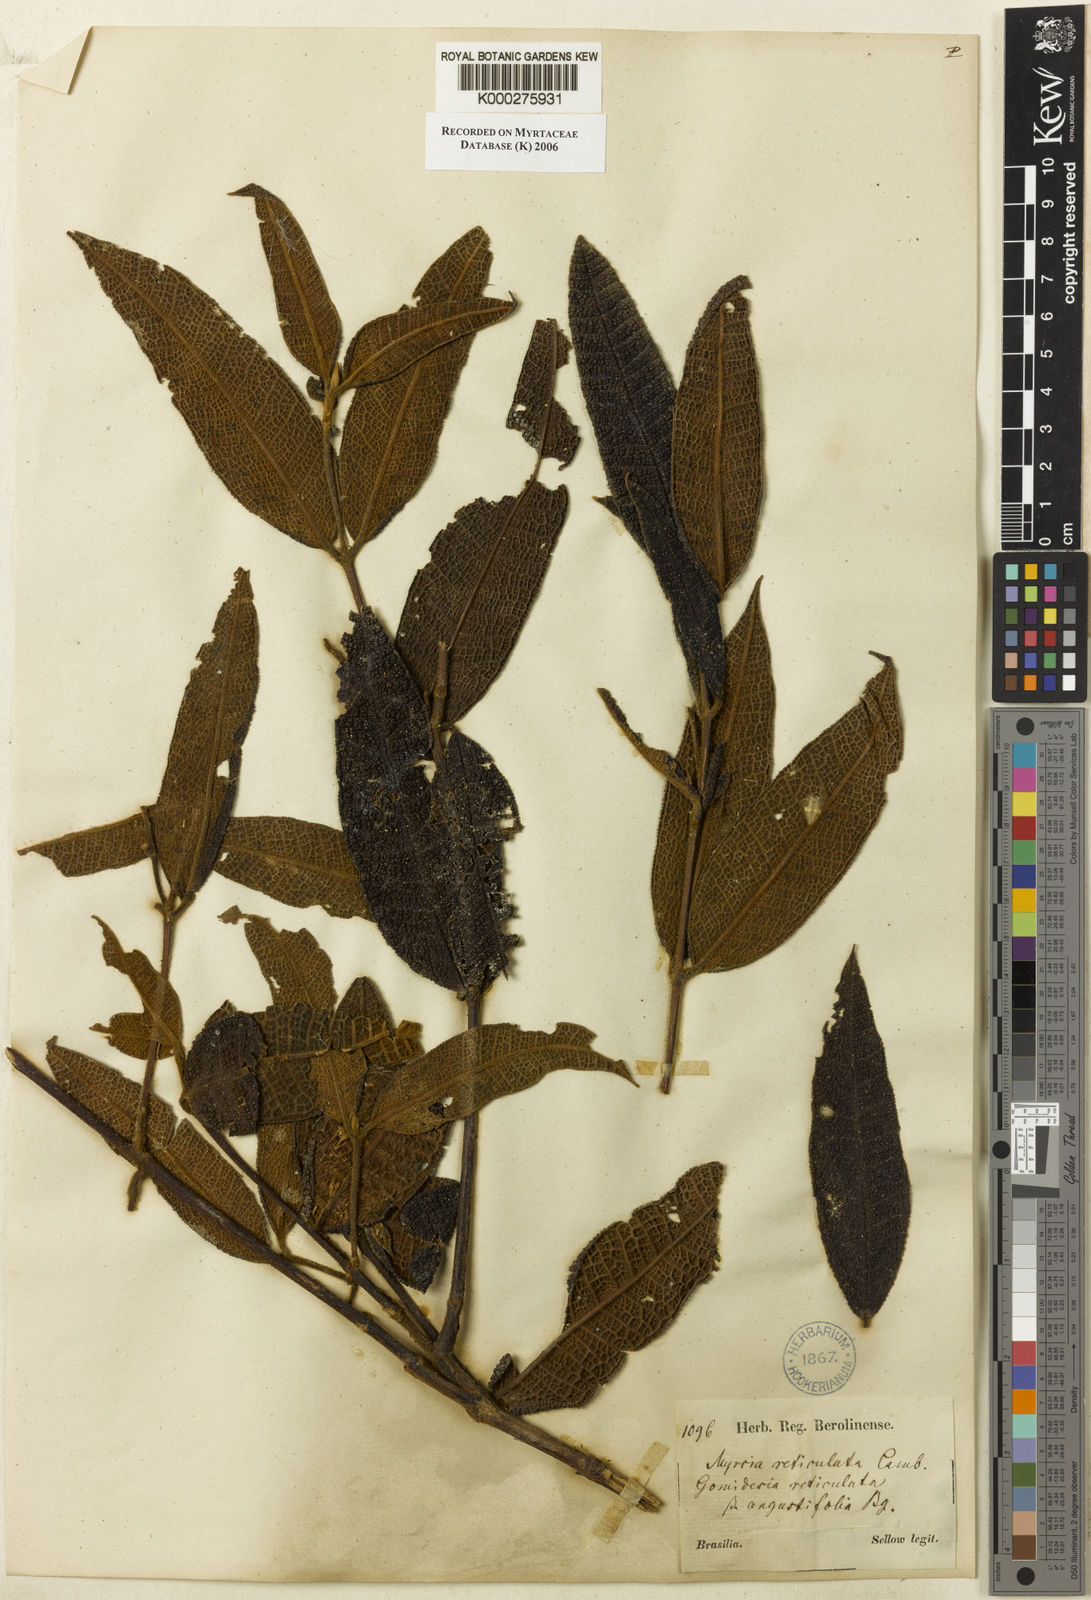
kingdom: Plantae
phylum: Tracheophyta
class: Magnoliopsida
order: Myrtales
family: Myrtaceae
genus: Myrcia
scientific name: Myrcia reticulata
